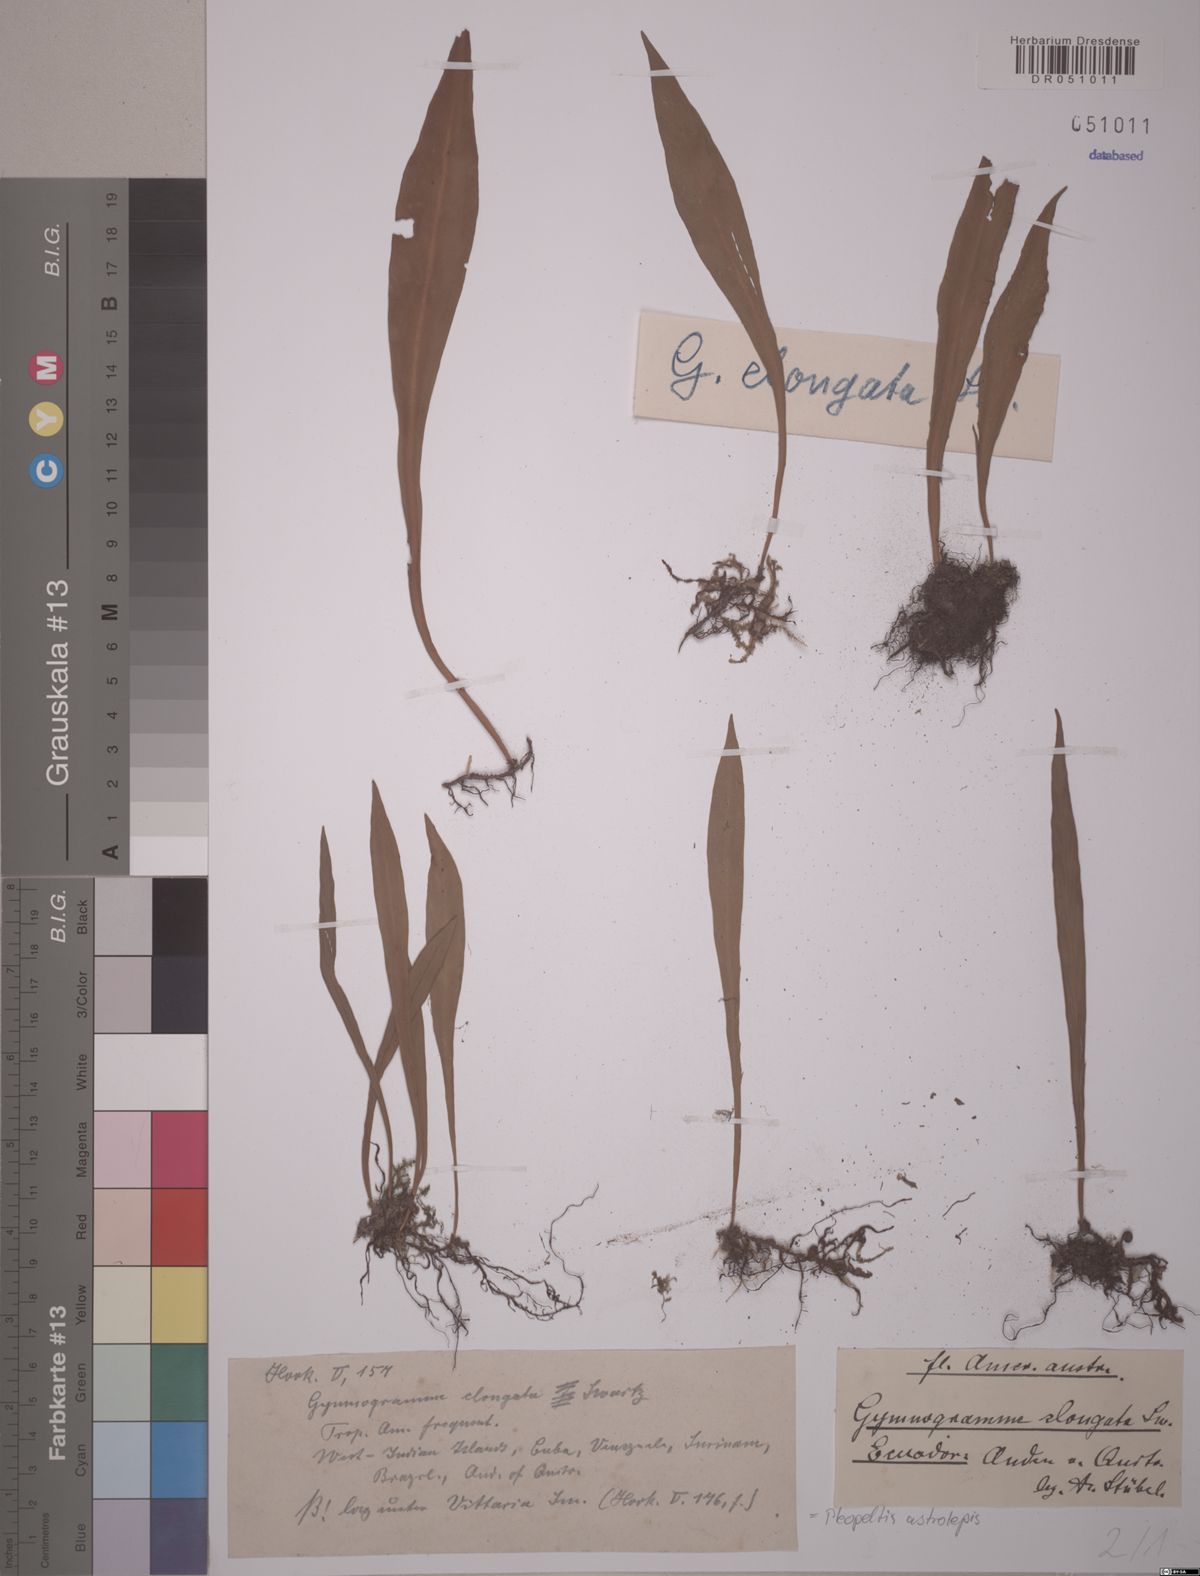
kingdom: Plantae
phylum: Tracheophyta
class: Polypodiopsida
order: Polypodiales
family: Polypodiaceae
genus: Pleopeltis
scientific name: Pleopeltis astrolepis
